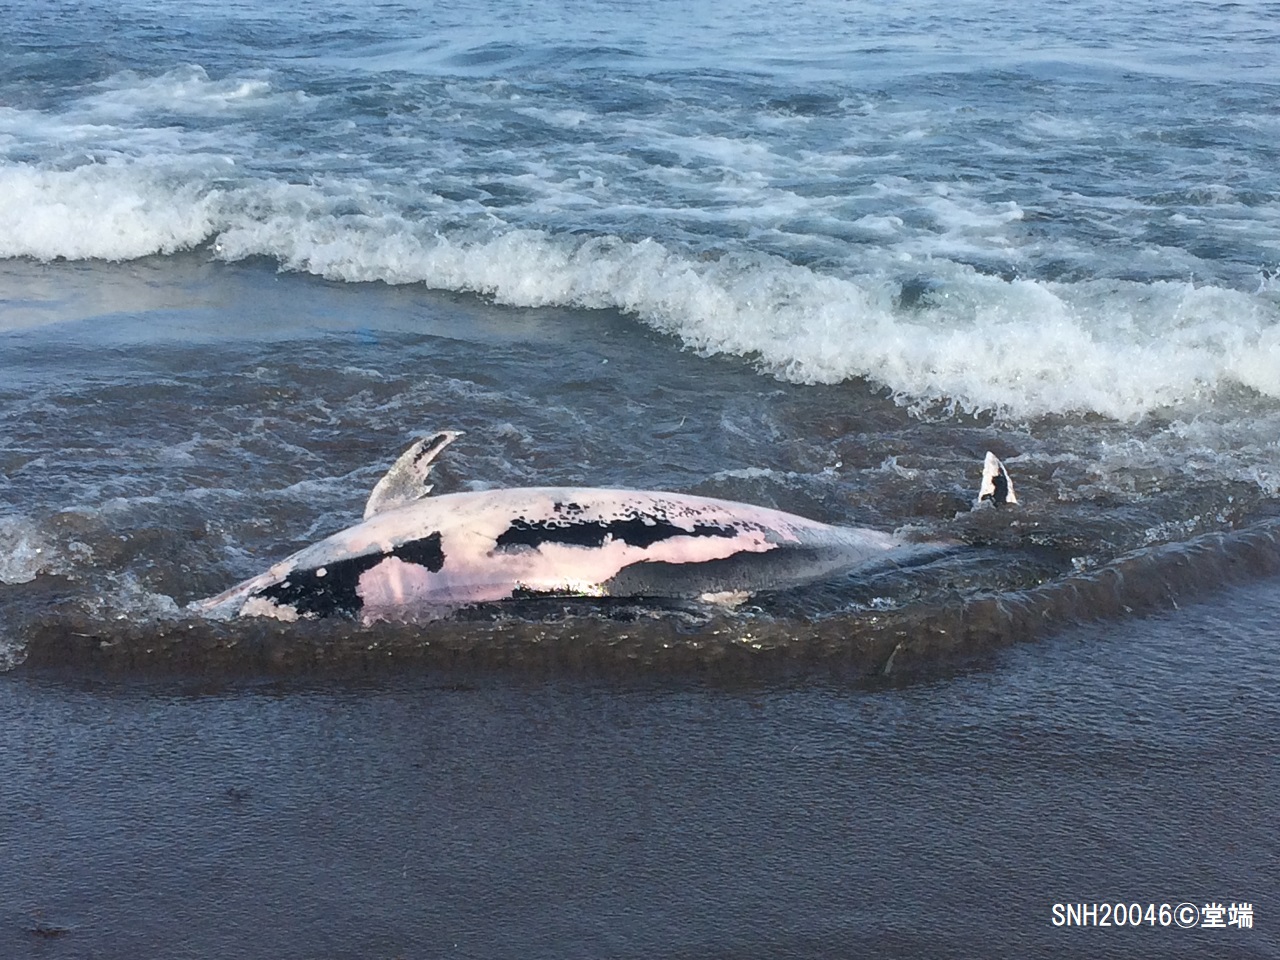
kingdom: Animalia
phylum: Chordata
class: Mammalia
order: Cetacea
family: Delphinidae
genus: Lagenorhynchus
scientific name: Lagenorhynchus obliquidens
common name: Pacific white-sided dolphin
